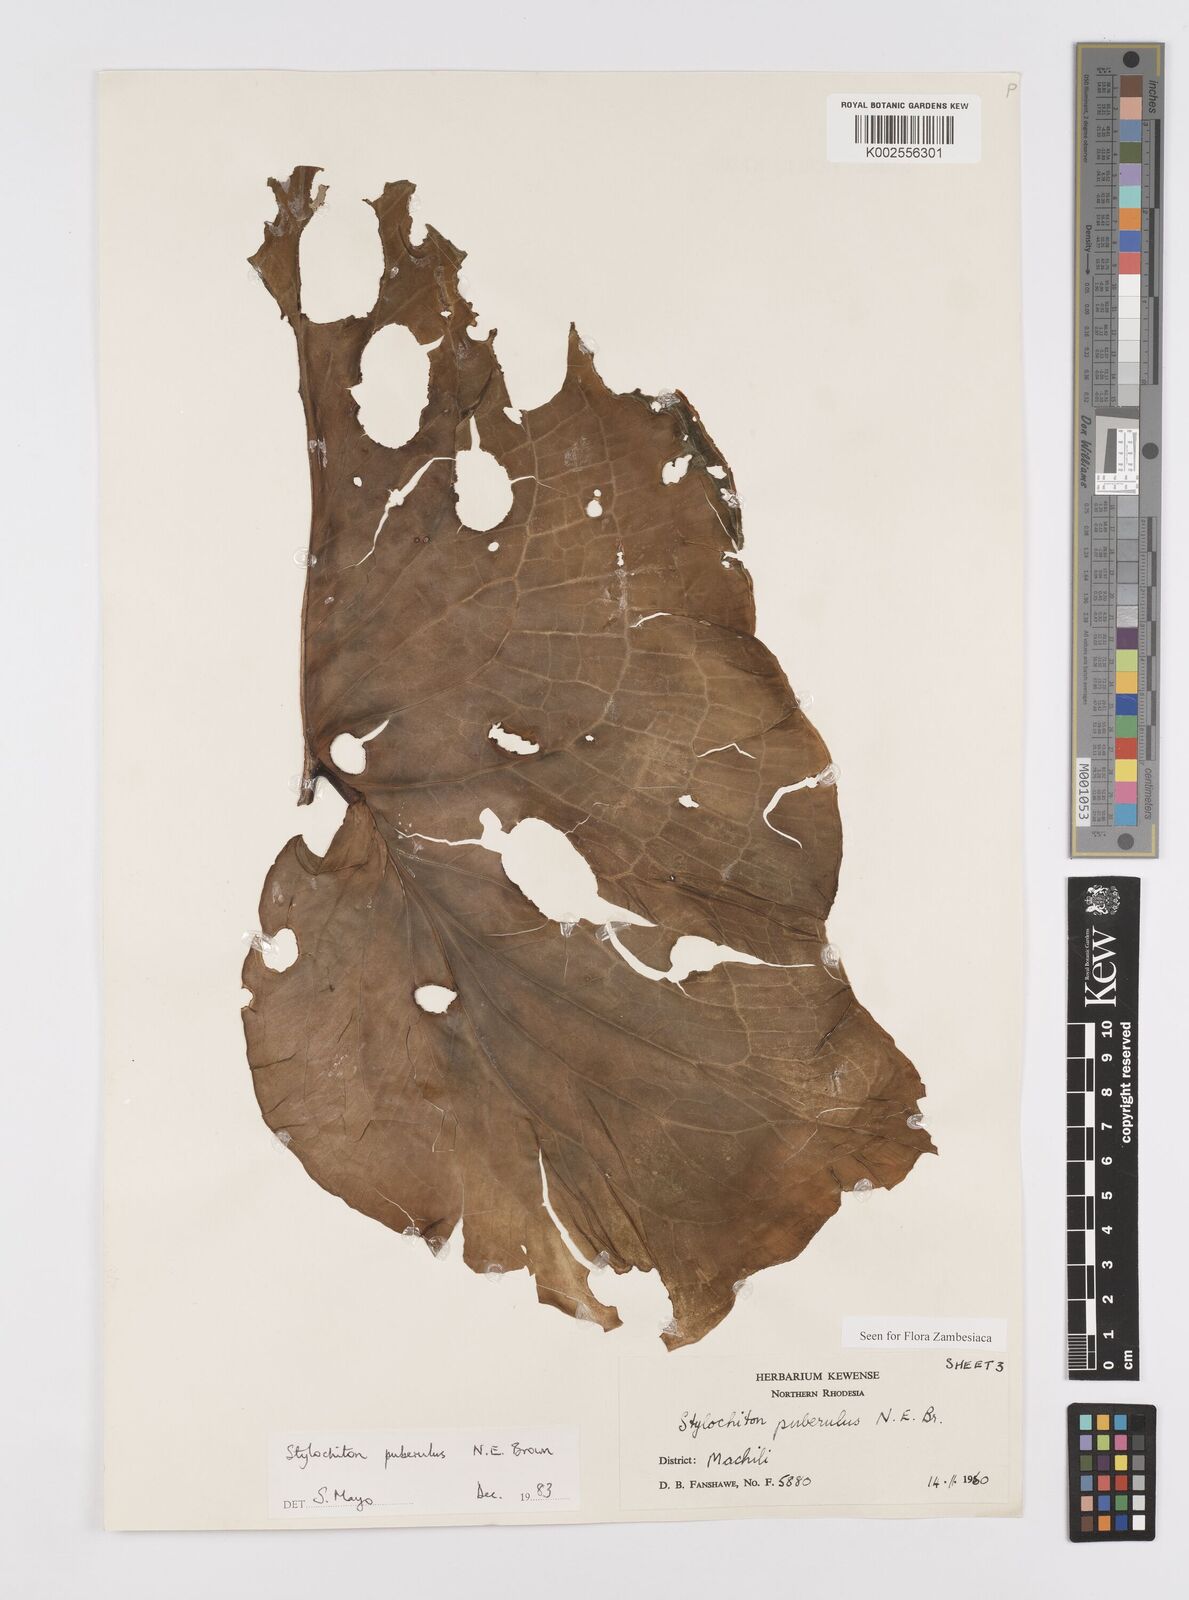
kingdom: Plantae
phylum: Tracheophyta
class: Liliopsida
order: Alismatales
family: Araceae
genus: Stylochaeton
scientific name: Stylochaeton puberulum
